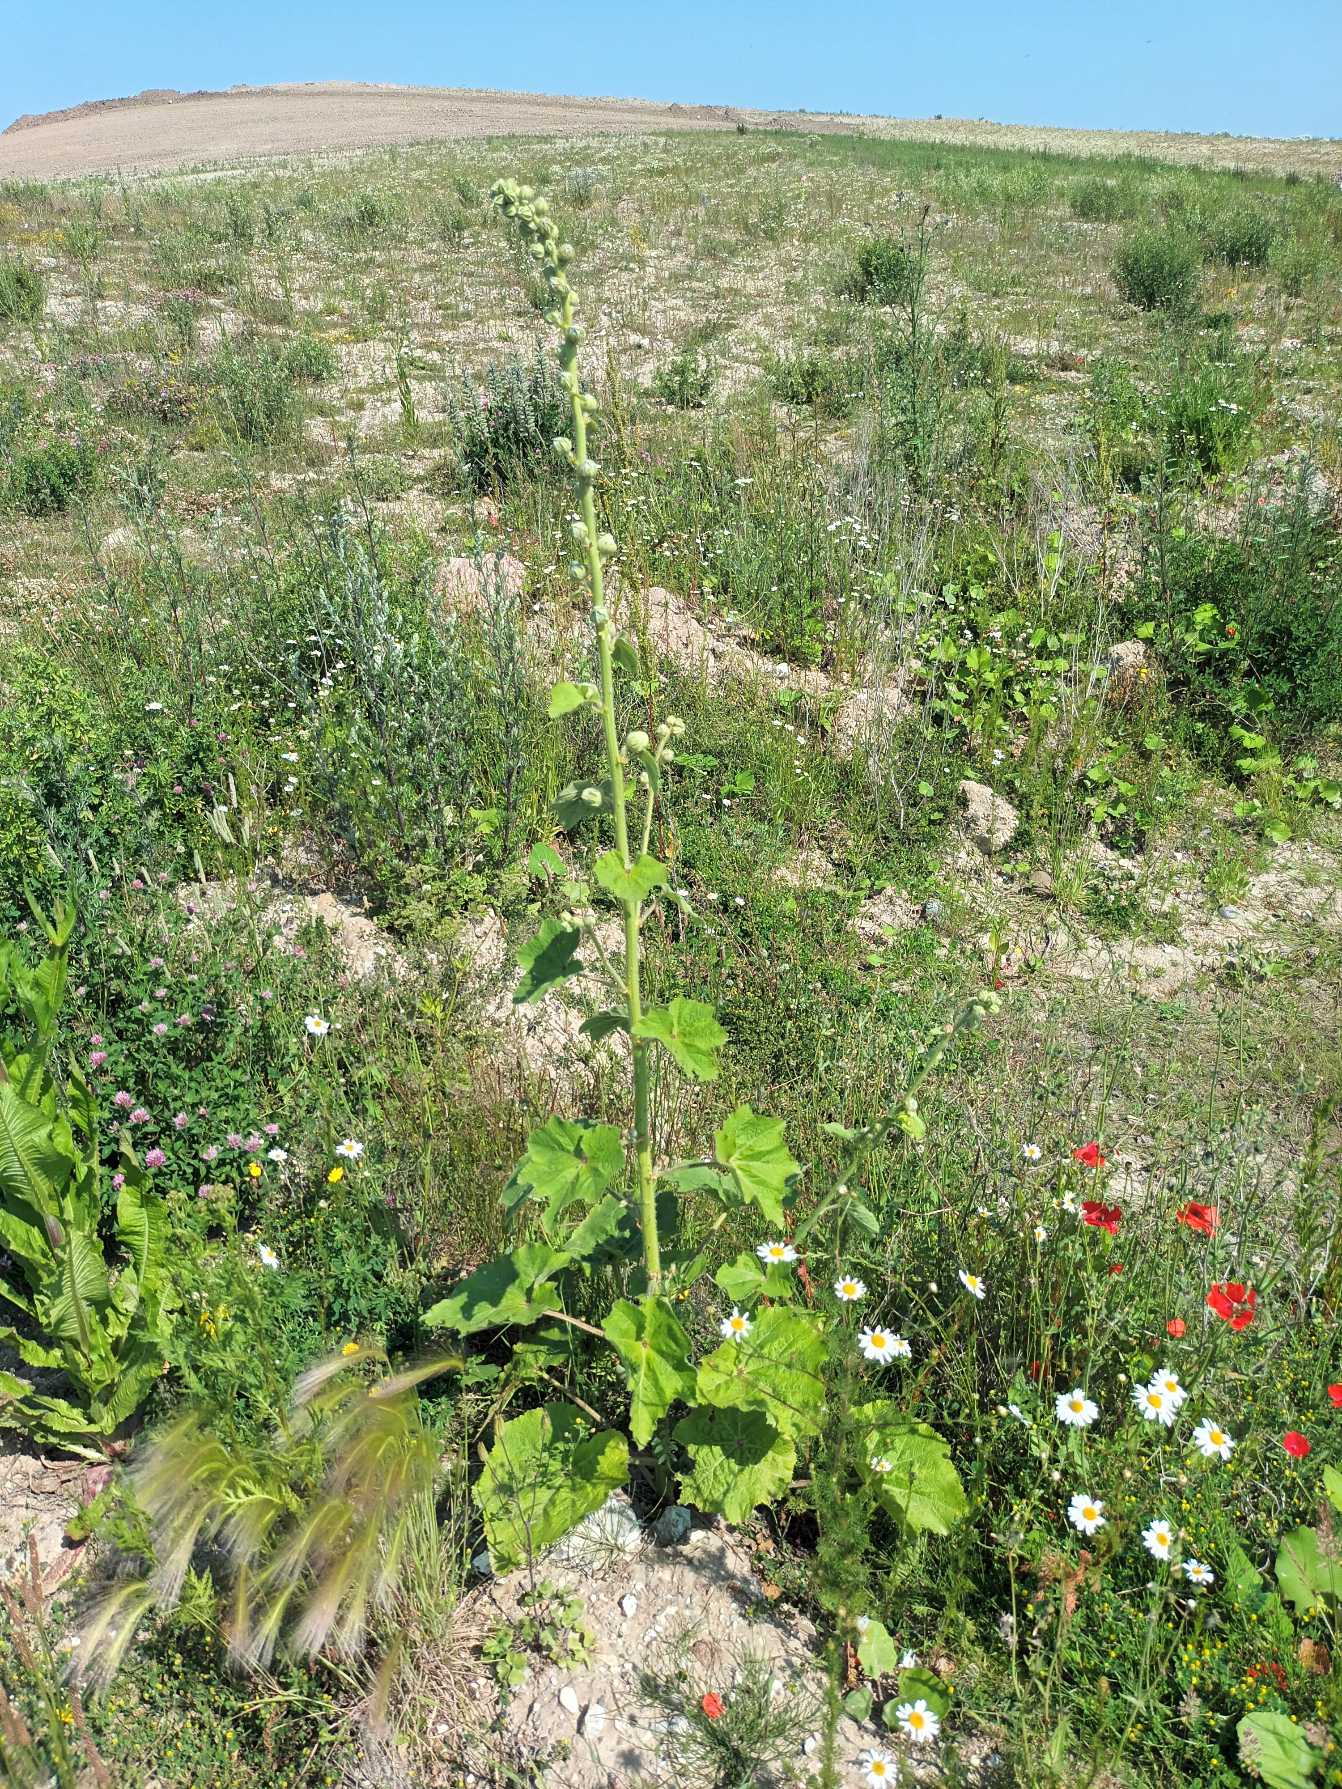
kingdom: Plantae
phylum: Tracheophyta
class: Magnoliopsida
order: Malvales
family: Malvaceae
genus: Alcea
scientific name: Alcea rosea
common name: Have-stokrose
